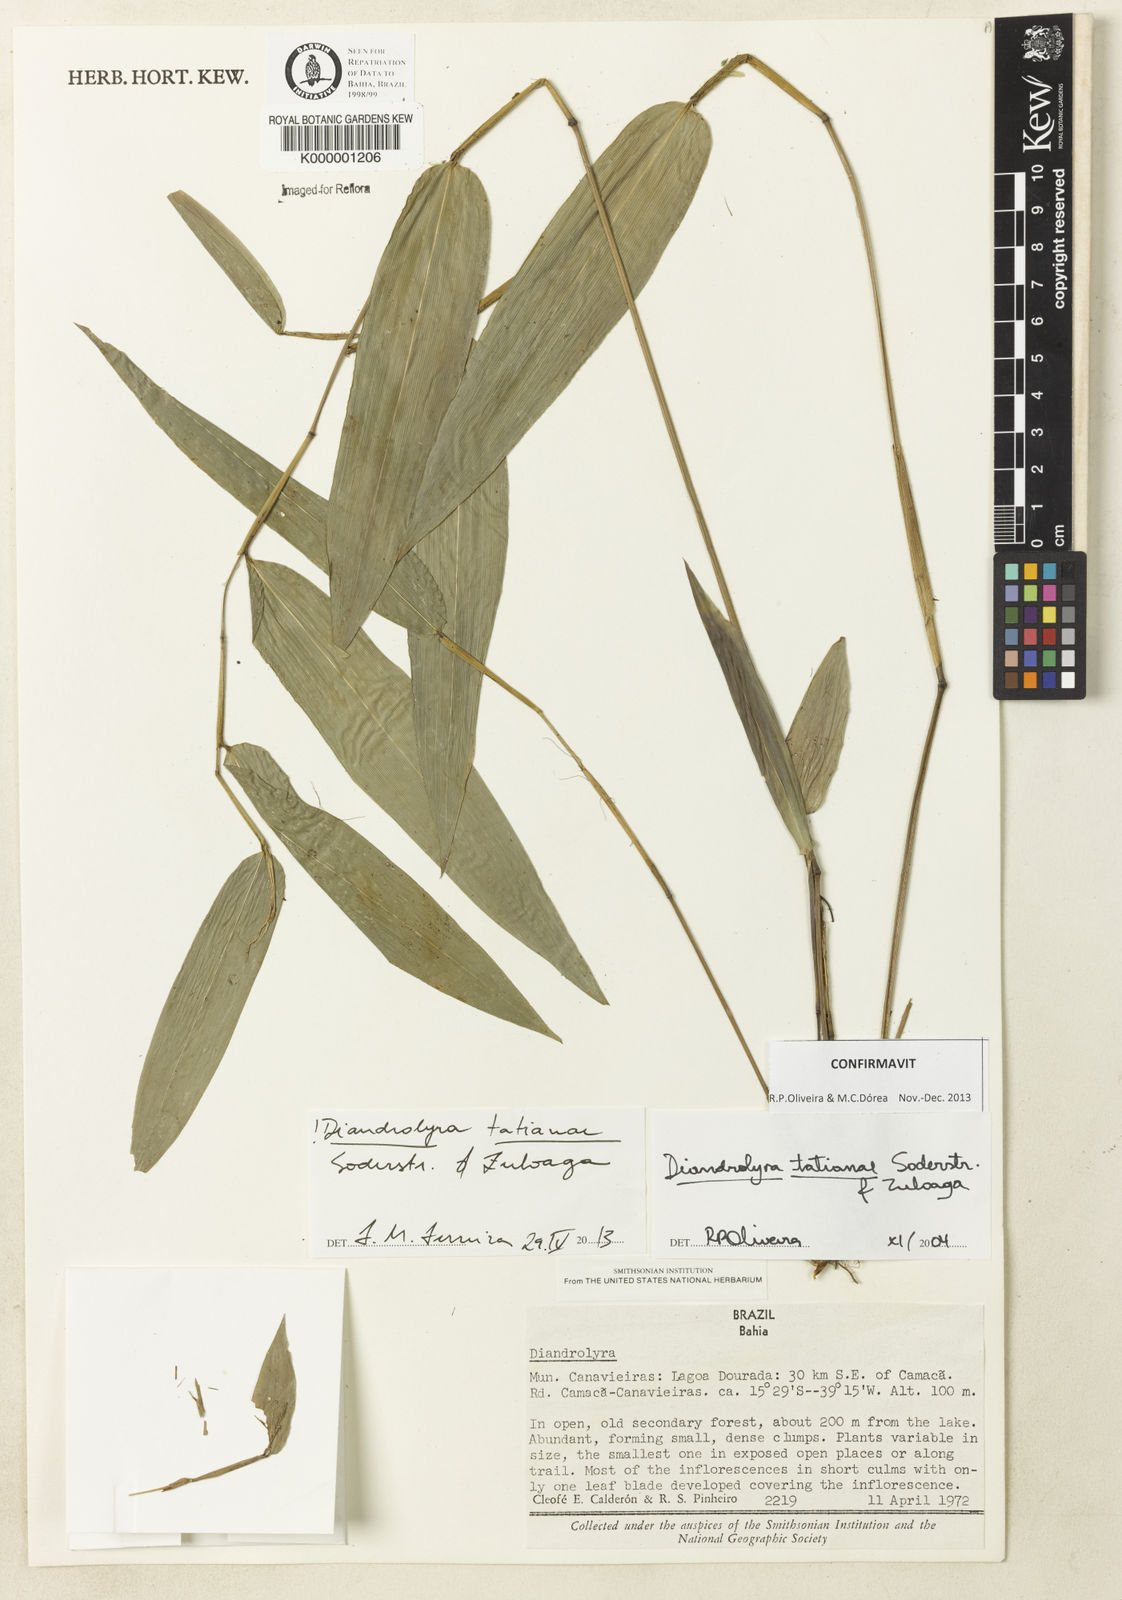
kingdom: Plantae
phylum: Tracheophyta
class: Liliopsida
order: Poales
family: Poaceae
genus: Diandrolyra
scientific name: Diandrolyra
